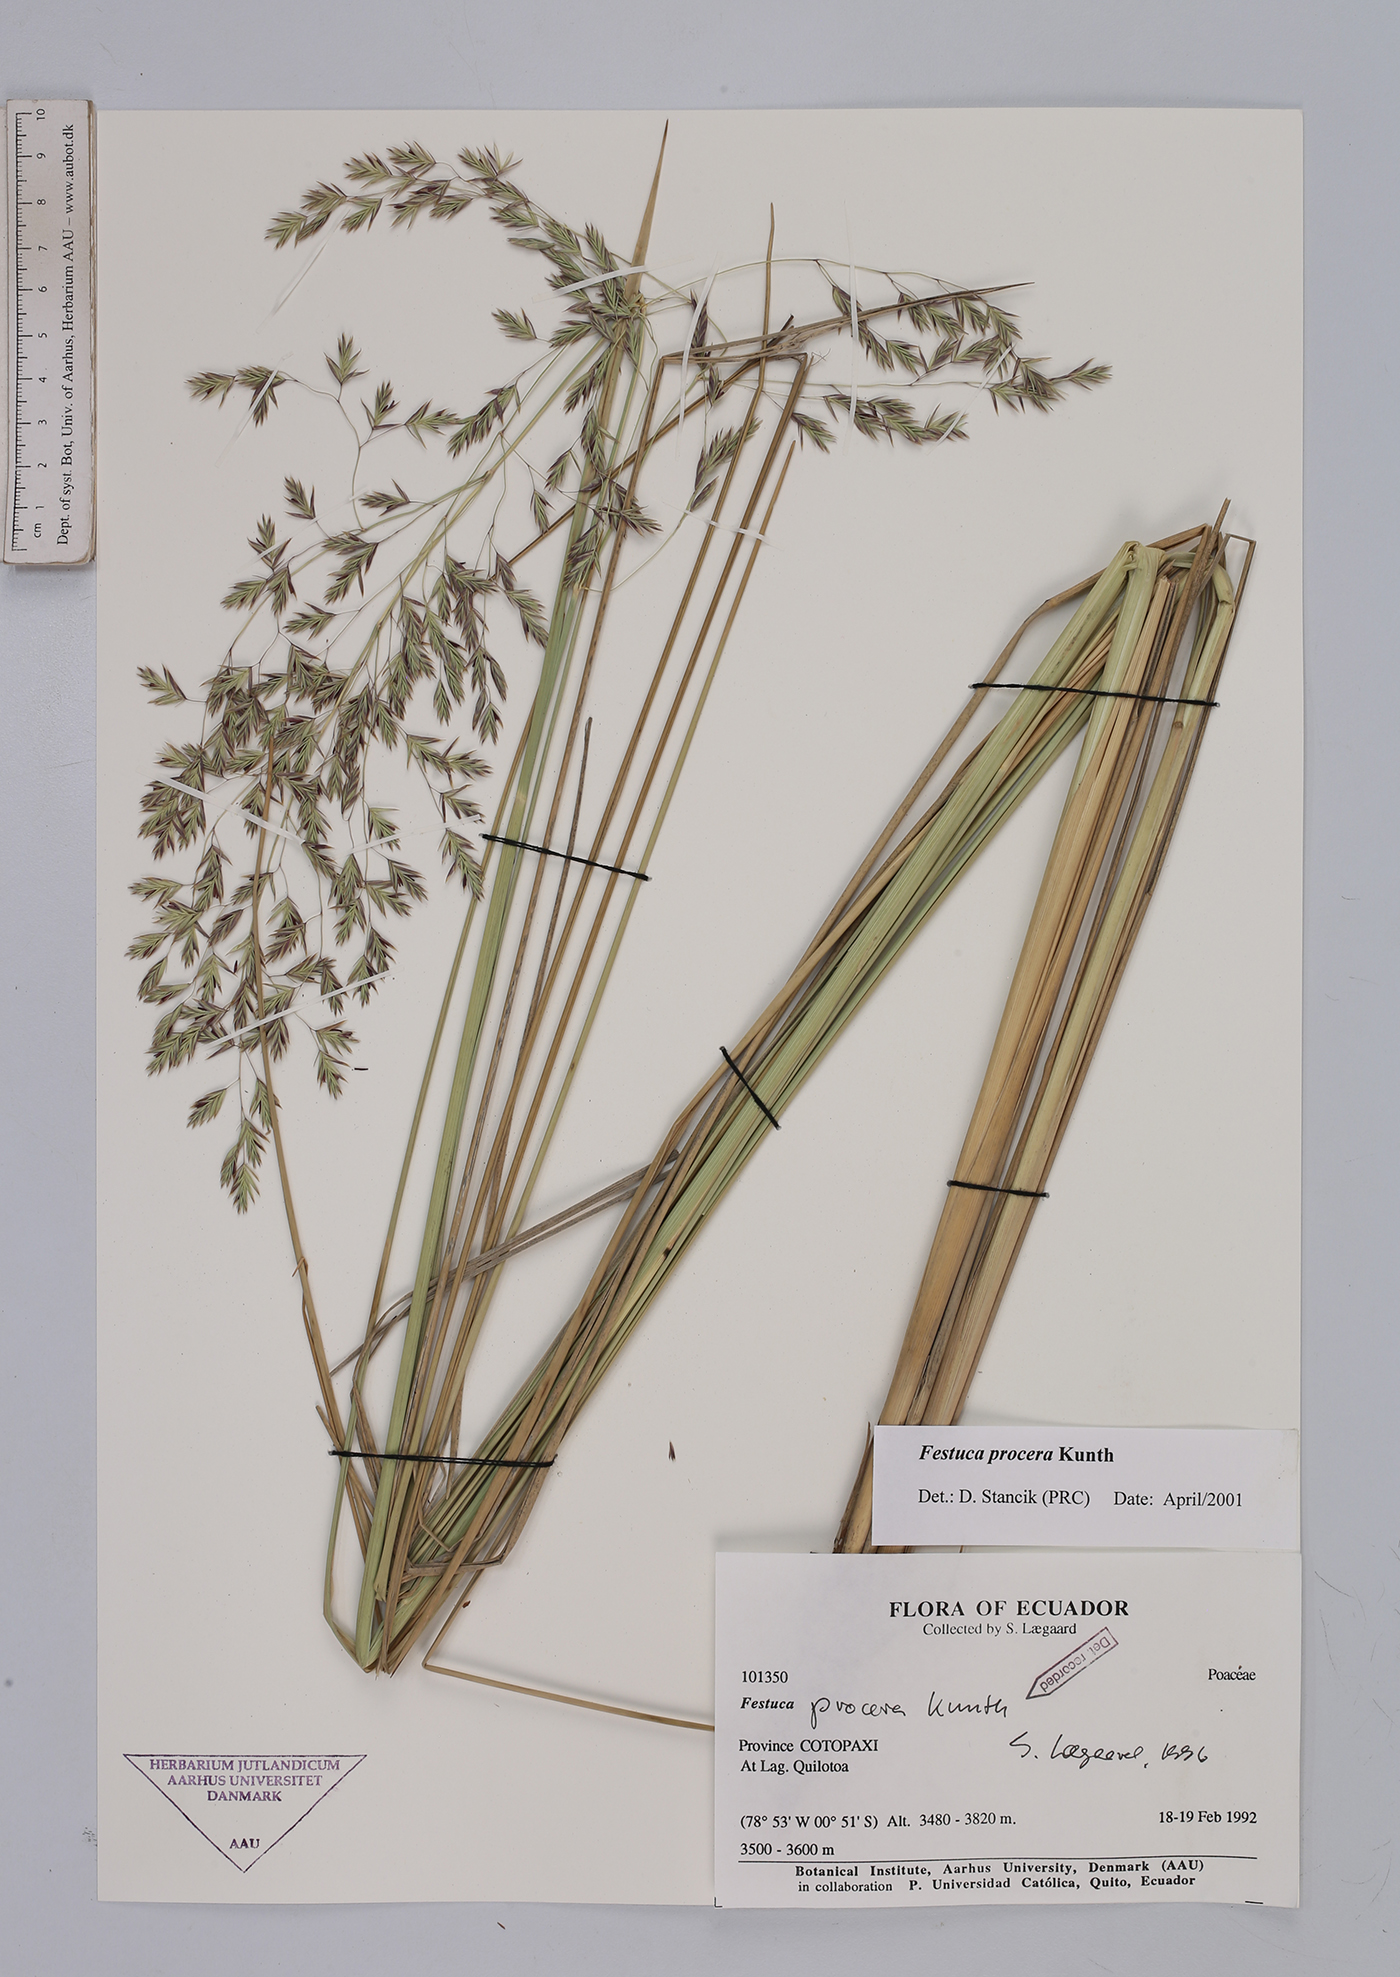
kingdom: Plantae
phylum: Tracheophyta
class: Liliopsida
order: Poales
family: Poaceae
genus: Festuca
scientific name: Festuca procera
